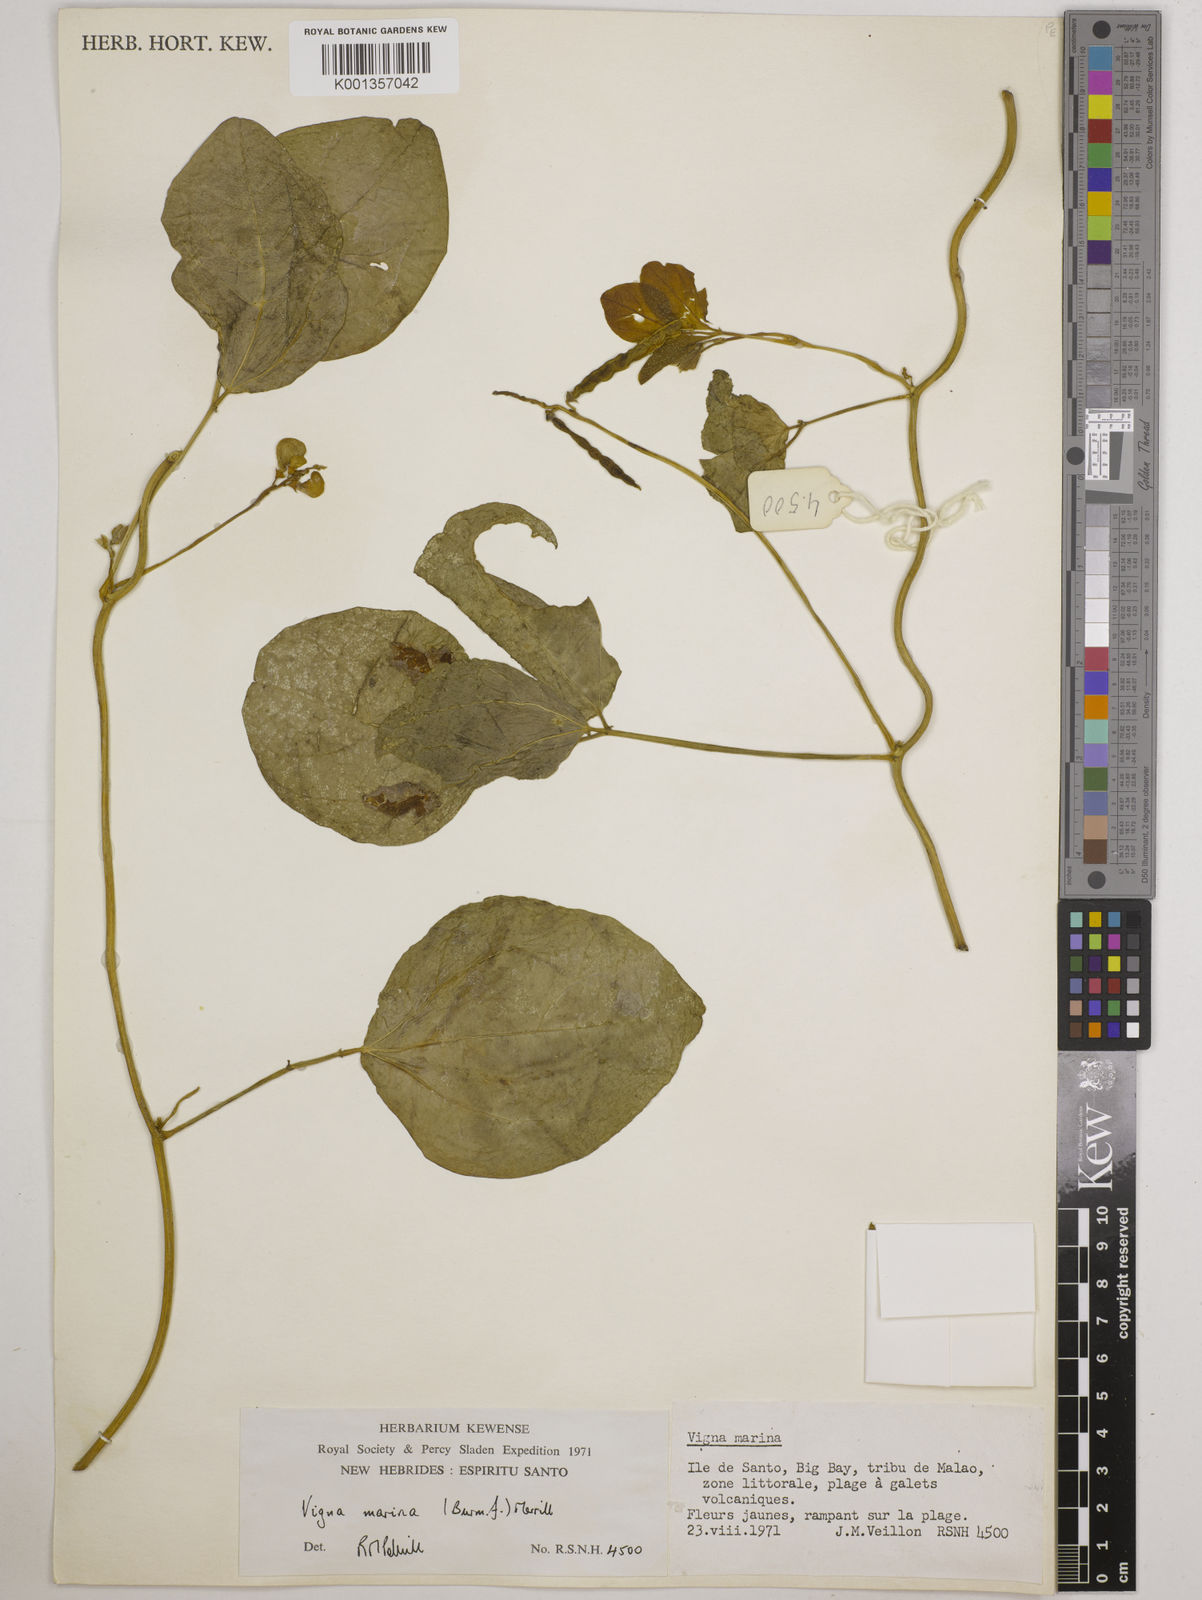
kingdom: Plantae
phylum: Tracheophyta
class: Magnoliopsida
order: Fabales
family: Fabaceae
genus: Vigna
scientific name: Vigna marina
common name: Dune-bean
